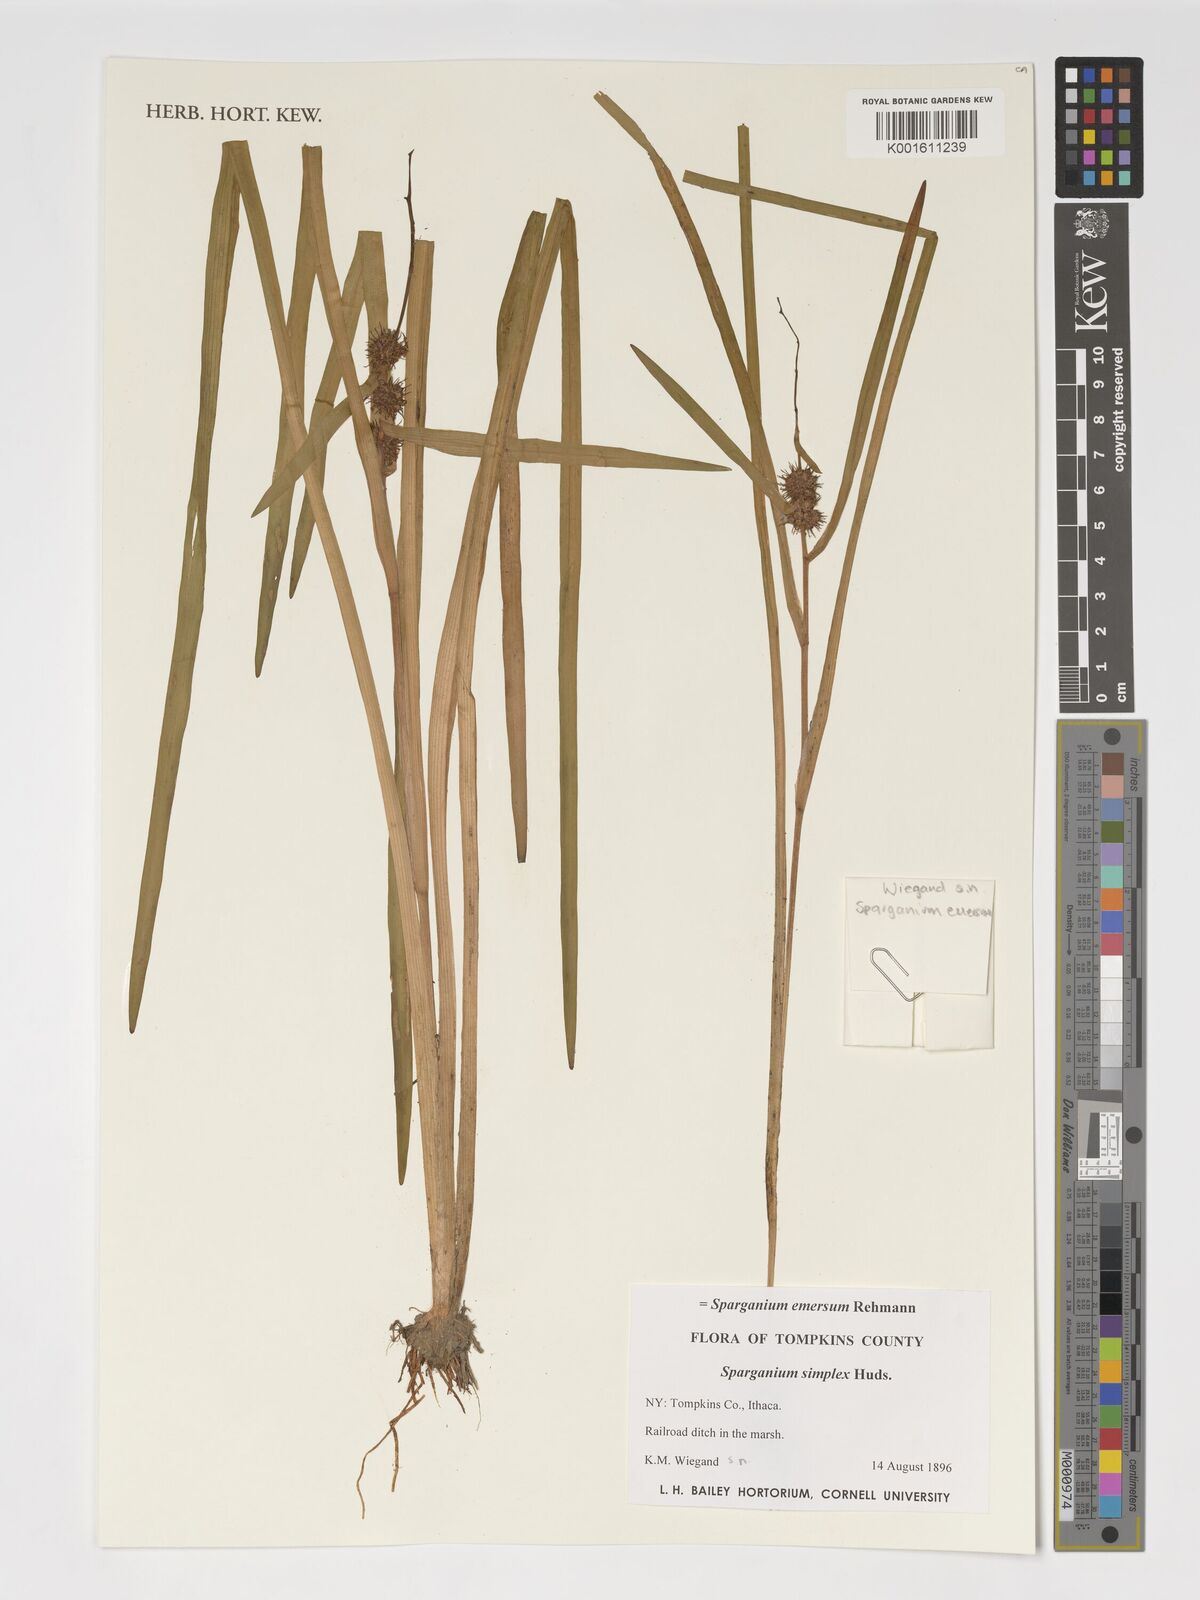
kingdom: Plantae
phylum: Tracheophyta
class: Liliopsida
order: Poales
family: Typhaceae
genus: Sparganium
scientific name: Sparganium emersum
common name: Unbranched bur-reed
